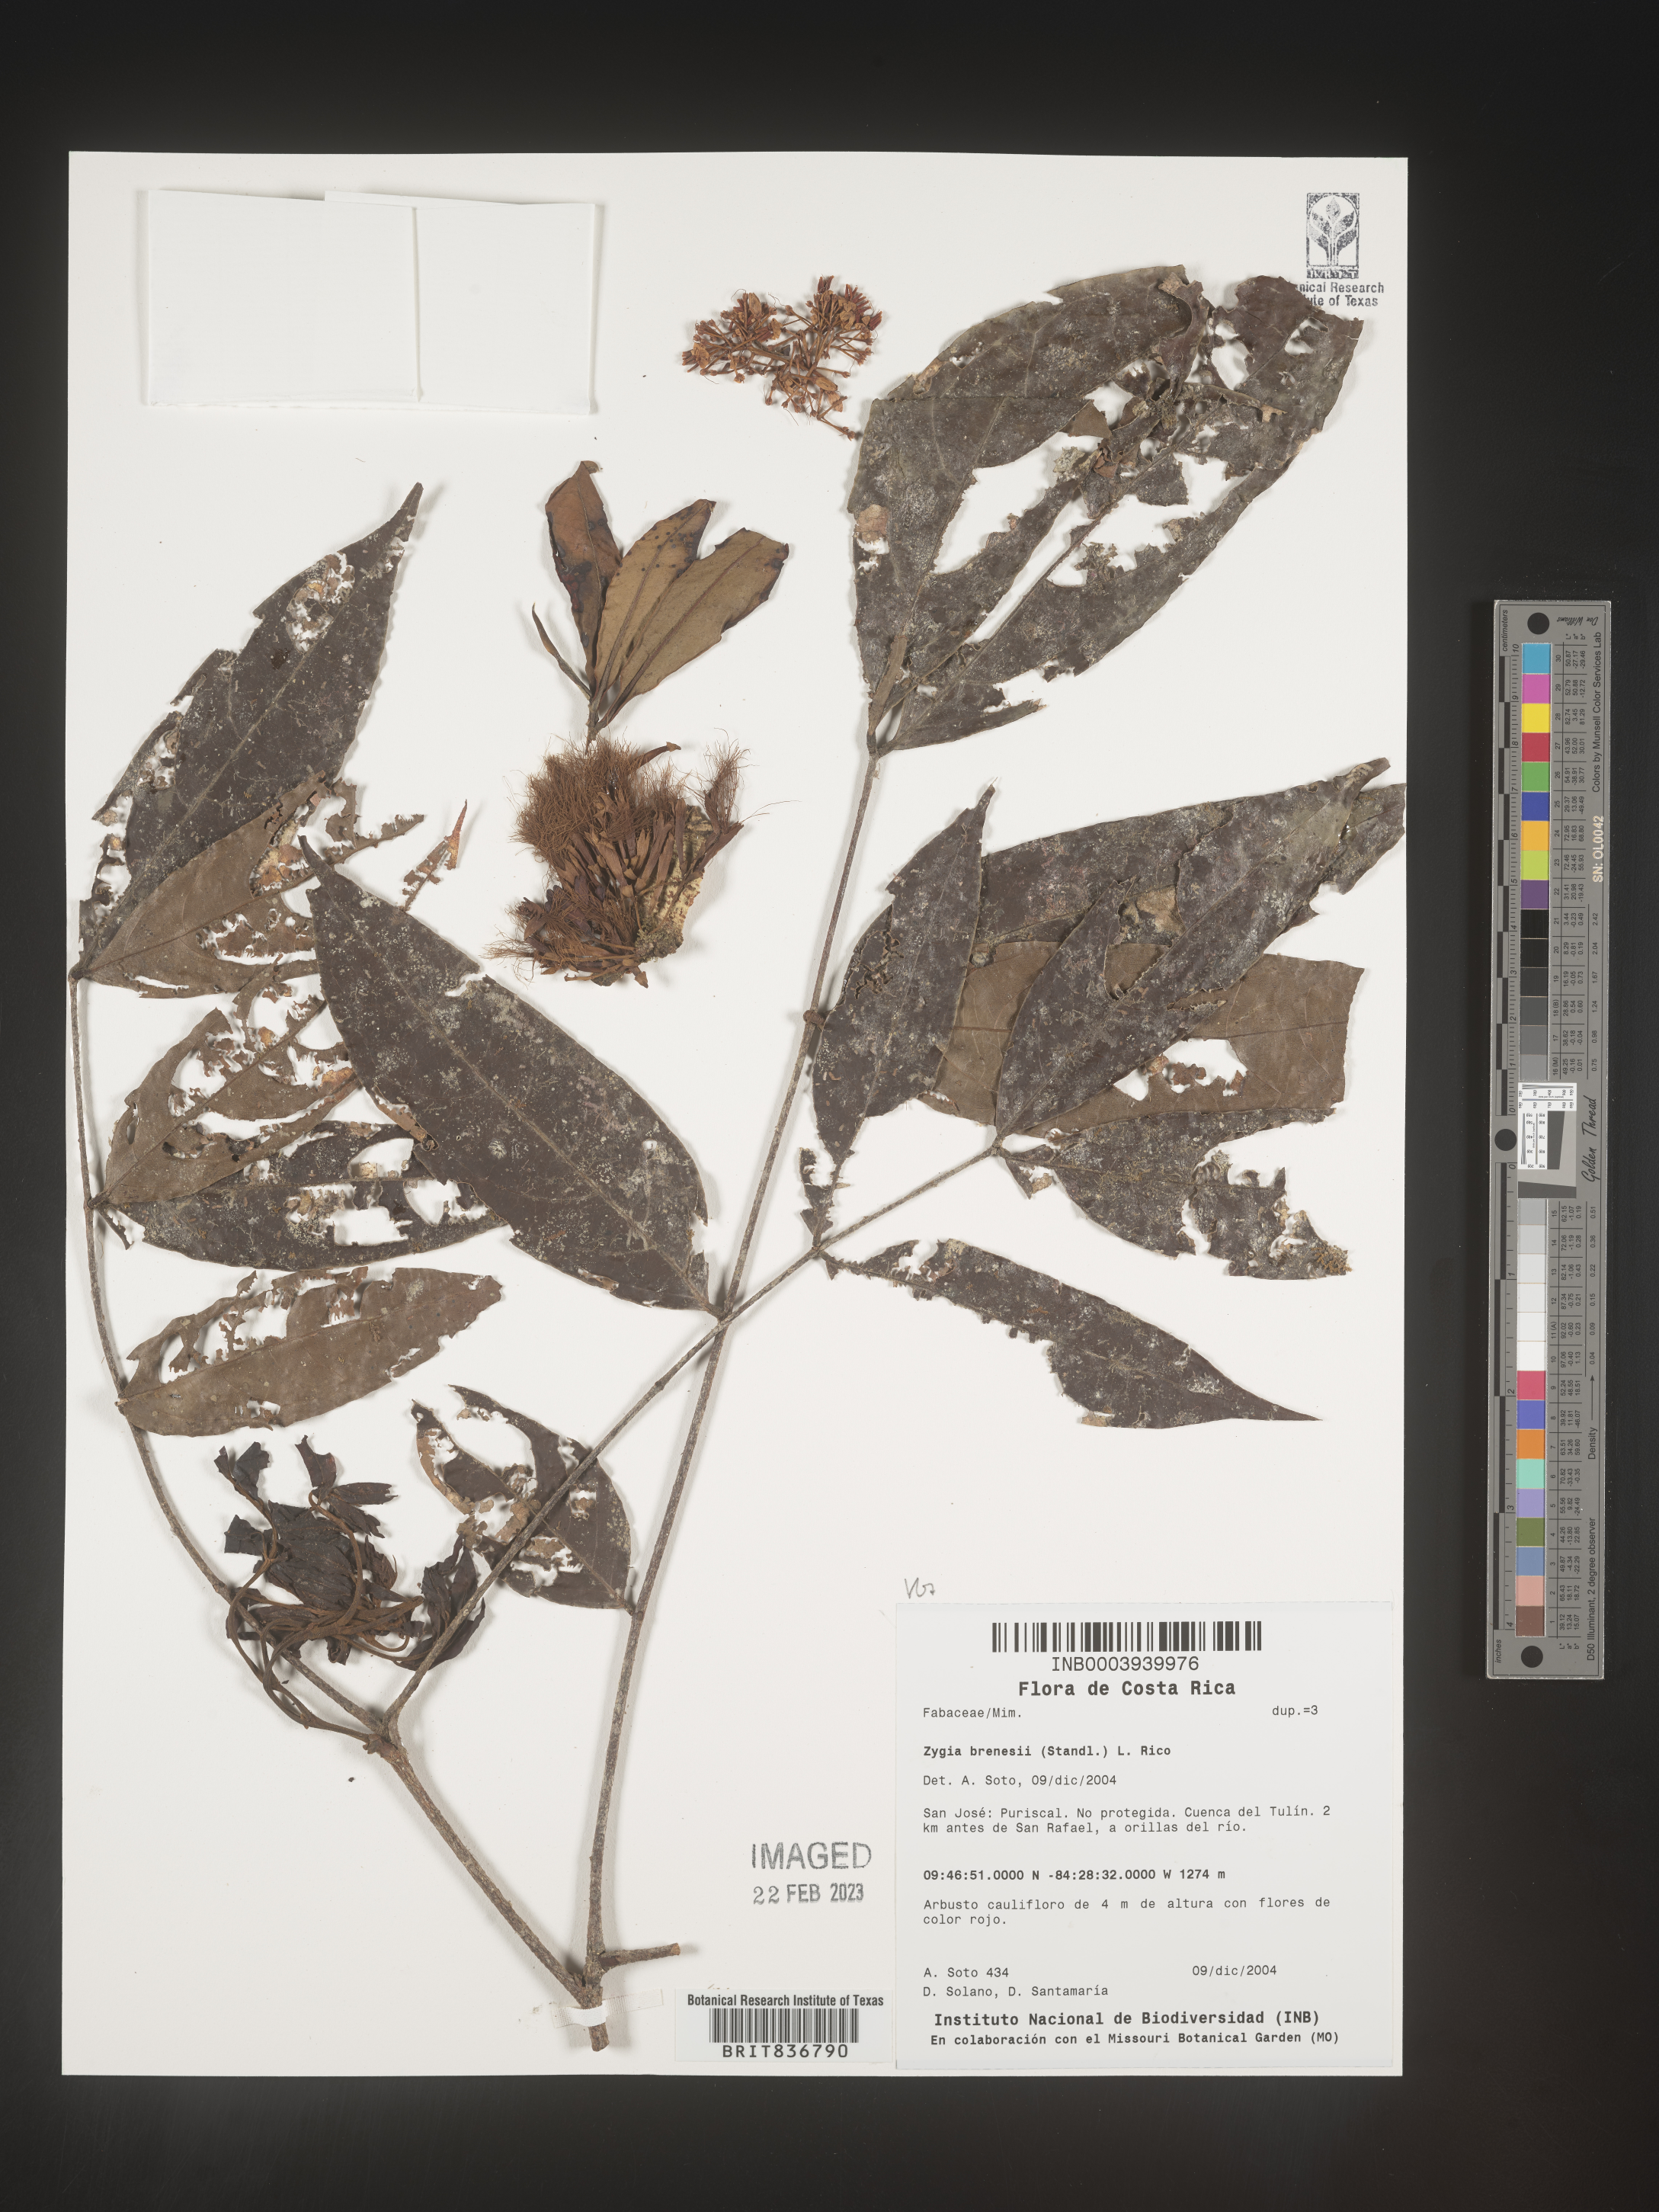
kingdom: Plantae
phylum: Tracheophyta
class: Magnoliopsida
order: Fabales
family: Fabaceae
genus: Zygia
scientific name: Zygia
